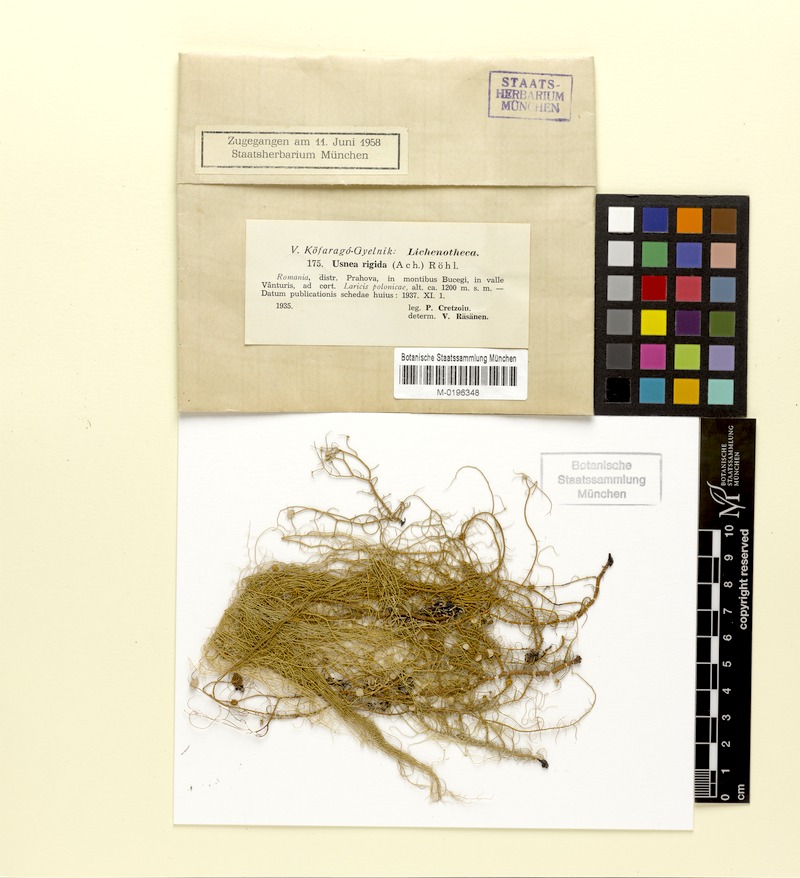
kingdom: Fungi
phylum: Ascomycota
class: Lecanoromycetes
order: Lecanorales
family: Parmeliaceae
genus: Usnea
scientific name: Usnea quasirigida
